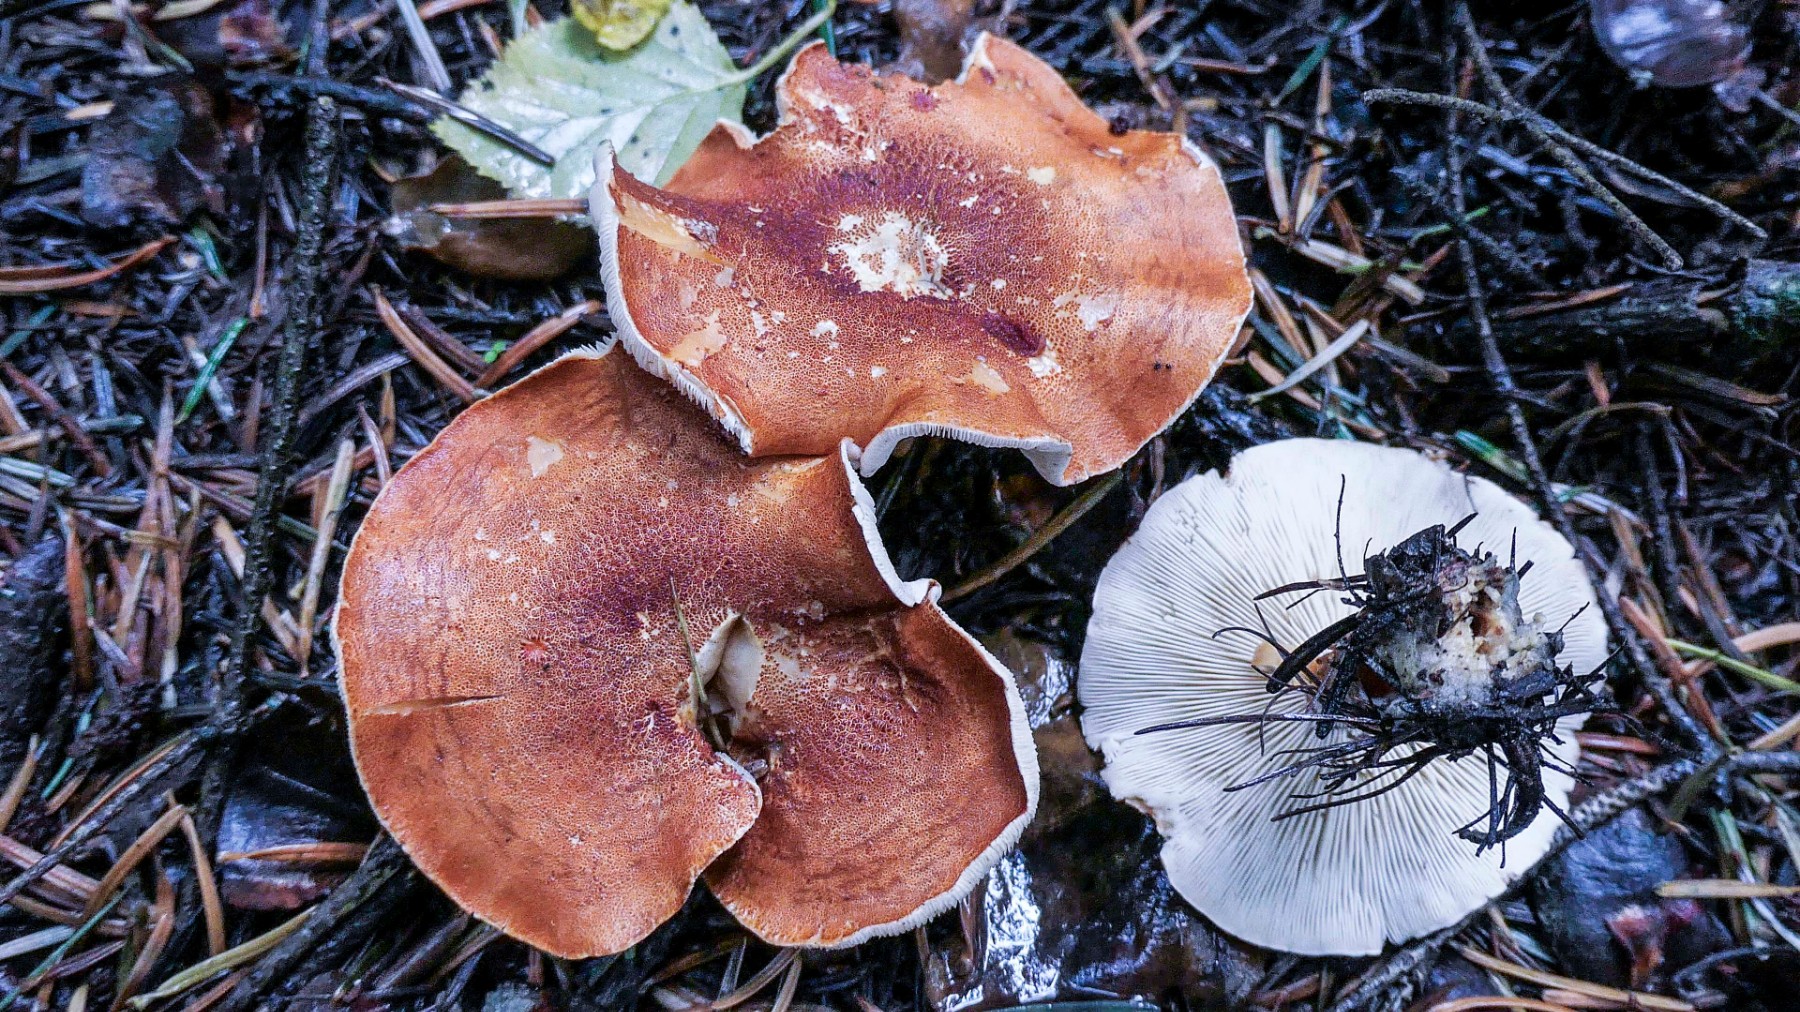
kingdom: Fungi
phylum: Basidiomycota
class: Agaricomycetes
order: Agaricales
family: Agaricaceae
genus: Cystodermella
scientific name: Cystodermella cinnabarina
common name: cinnober-grynhat
